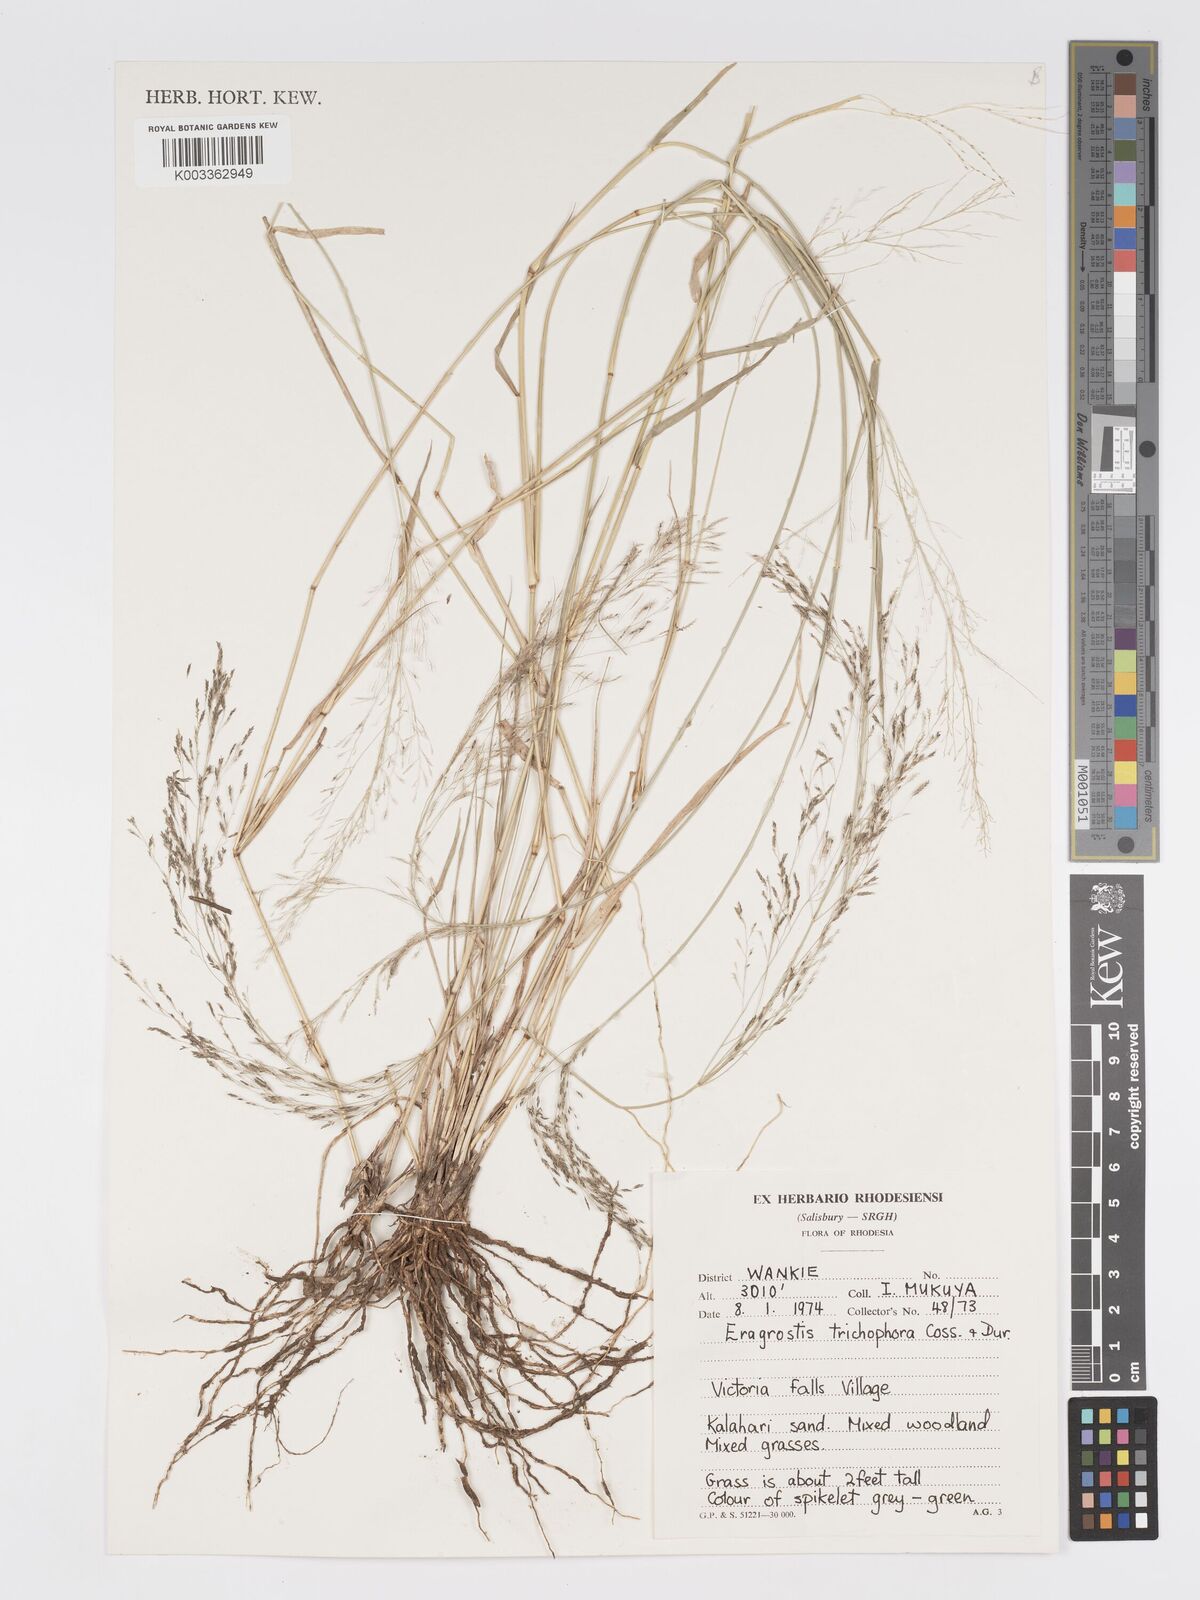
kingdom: Plantae
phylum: Tracheophyta
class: Liliopsida
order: Poales
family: Poaceae
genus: Eragrostis
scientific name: Eragrostis cylindriflora
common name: Cylinderflower lovegrass
